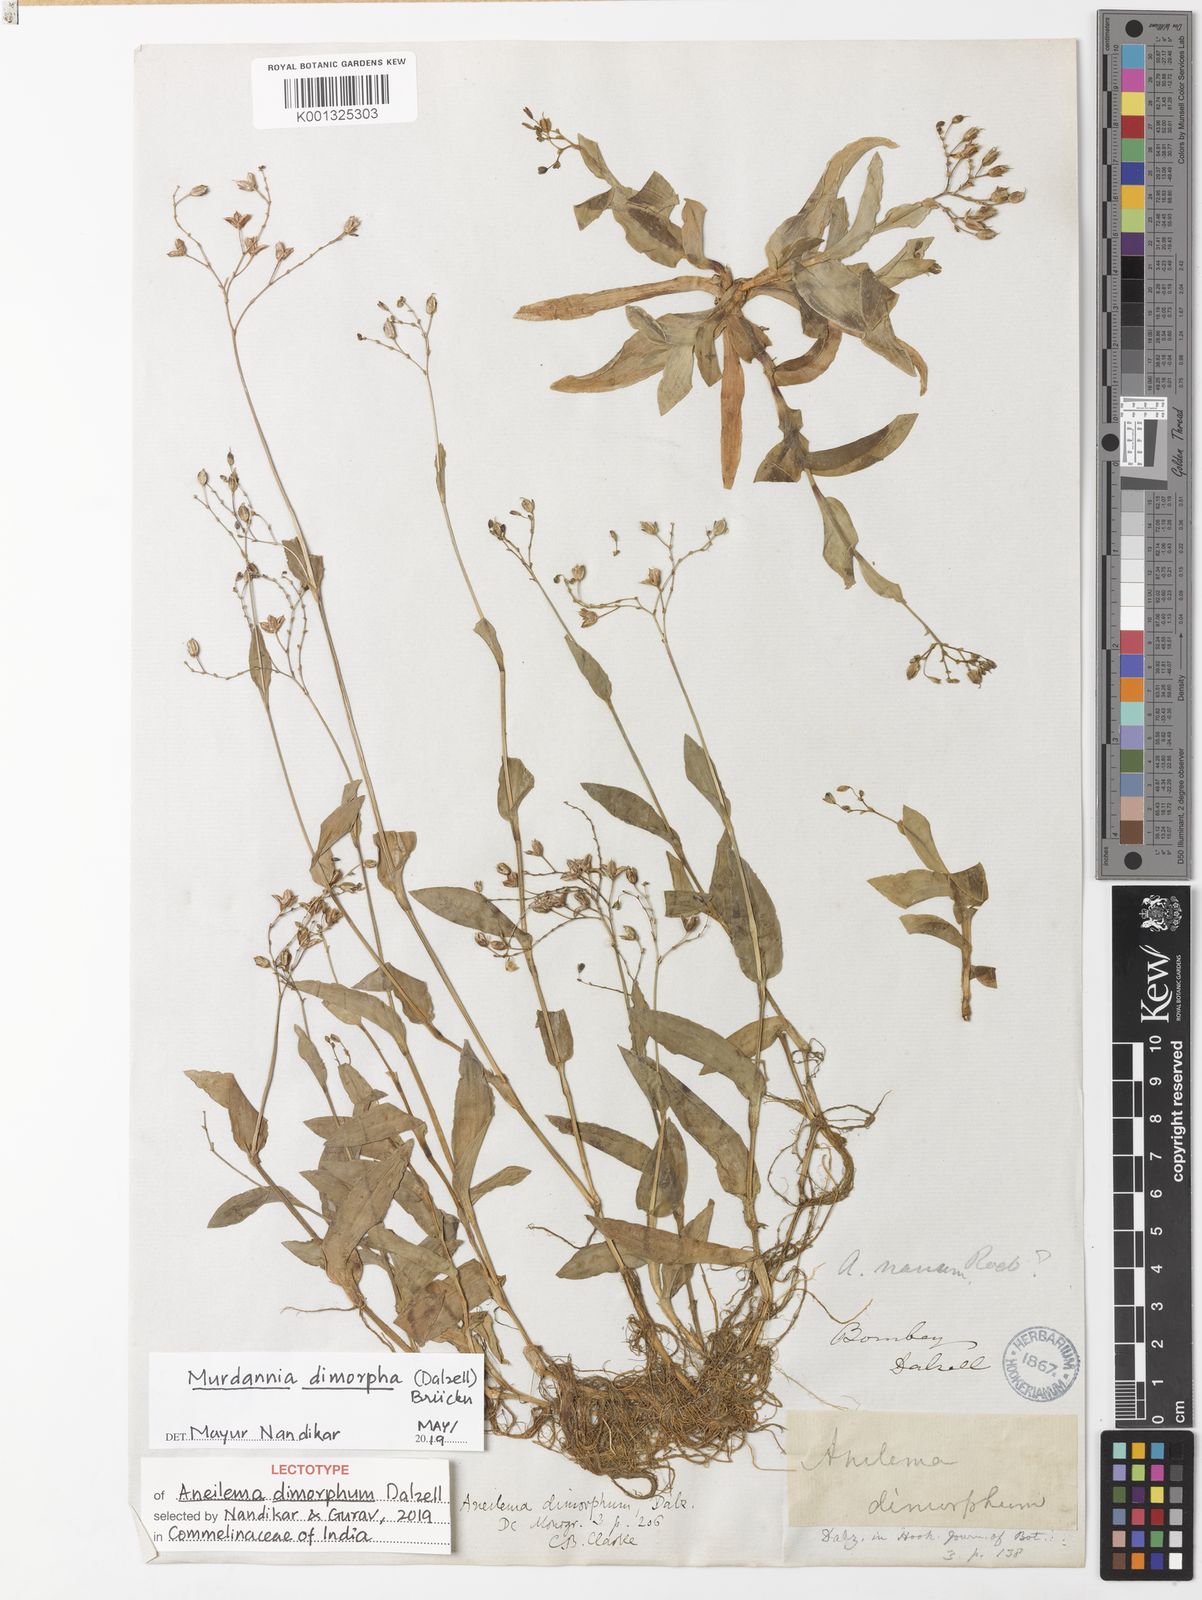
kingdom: Plantae
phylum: Tracheophyta
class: Liliopsida
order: Commelinales
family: Commelinaceae
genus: Murdannia
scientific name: Murdannia
